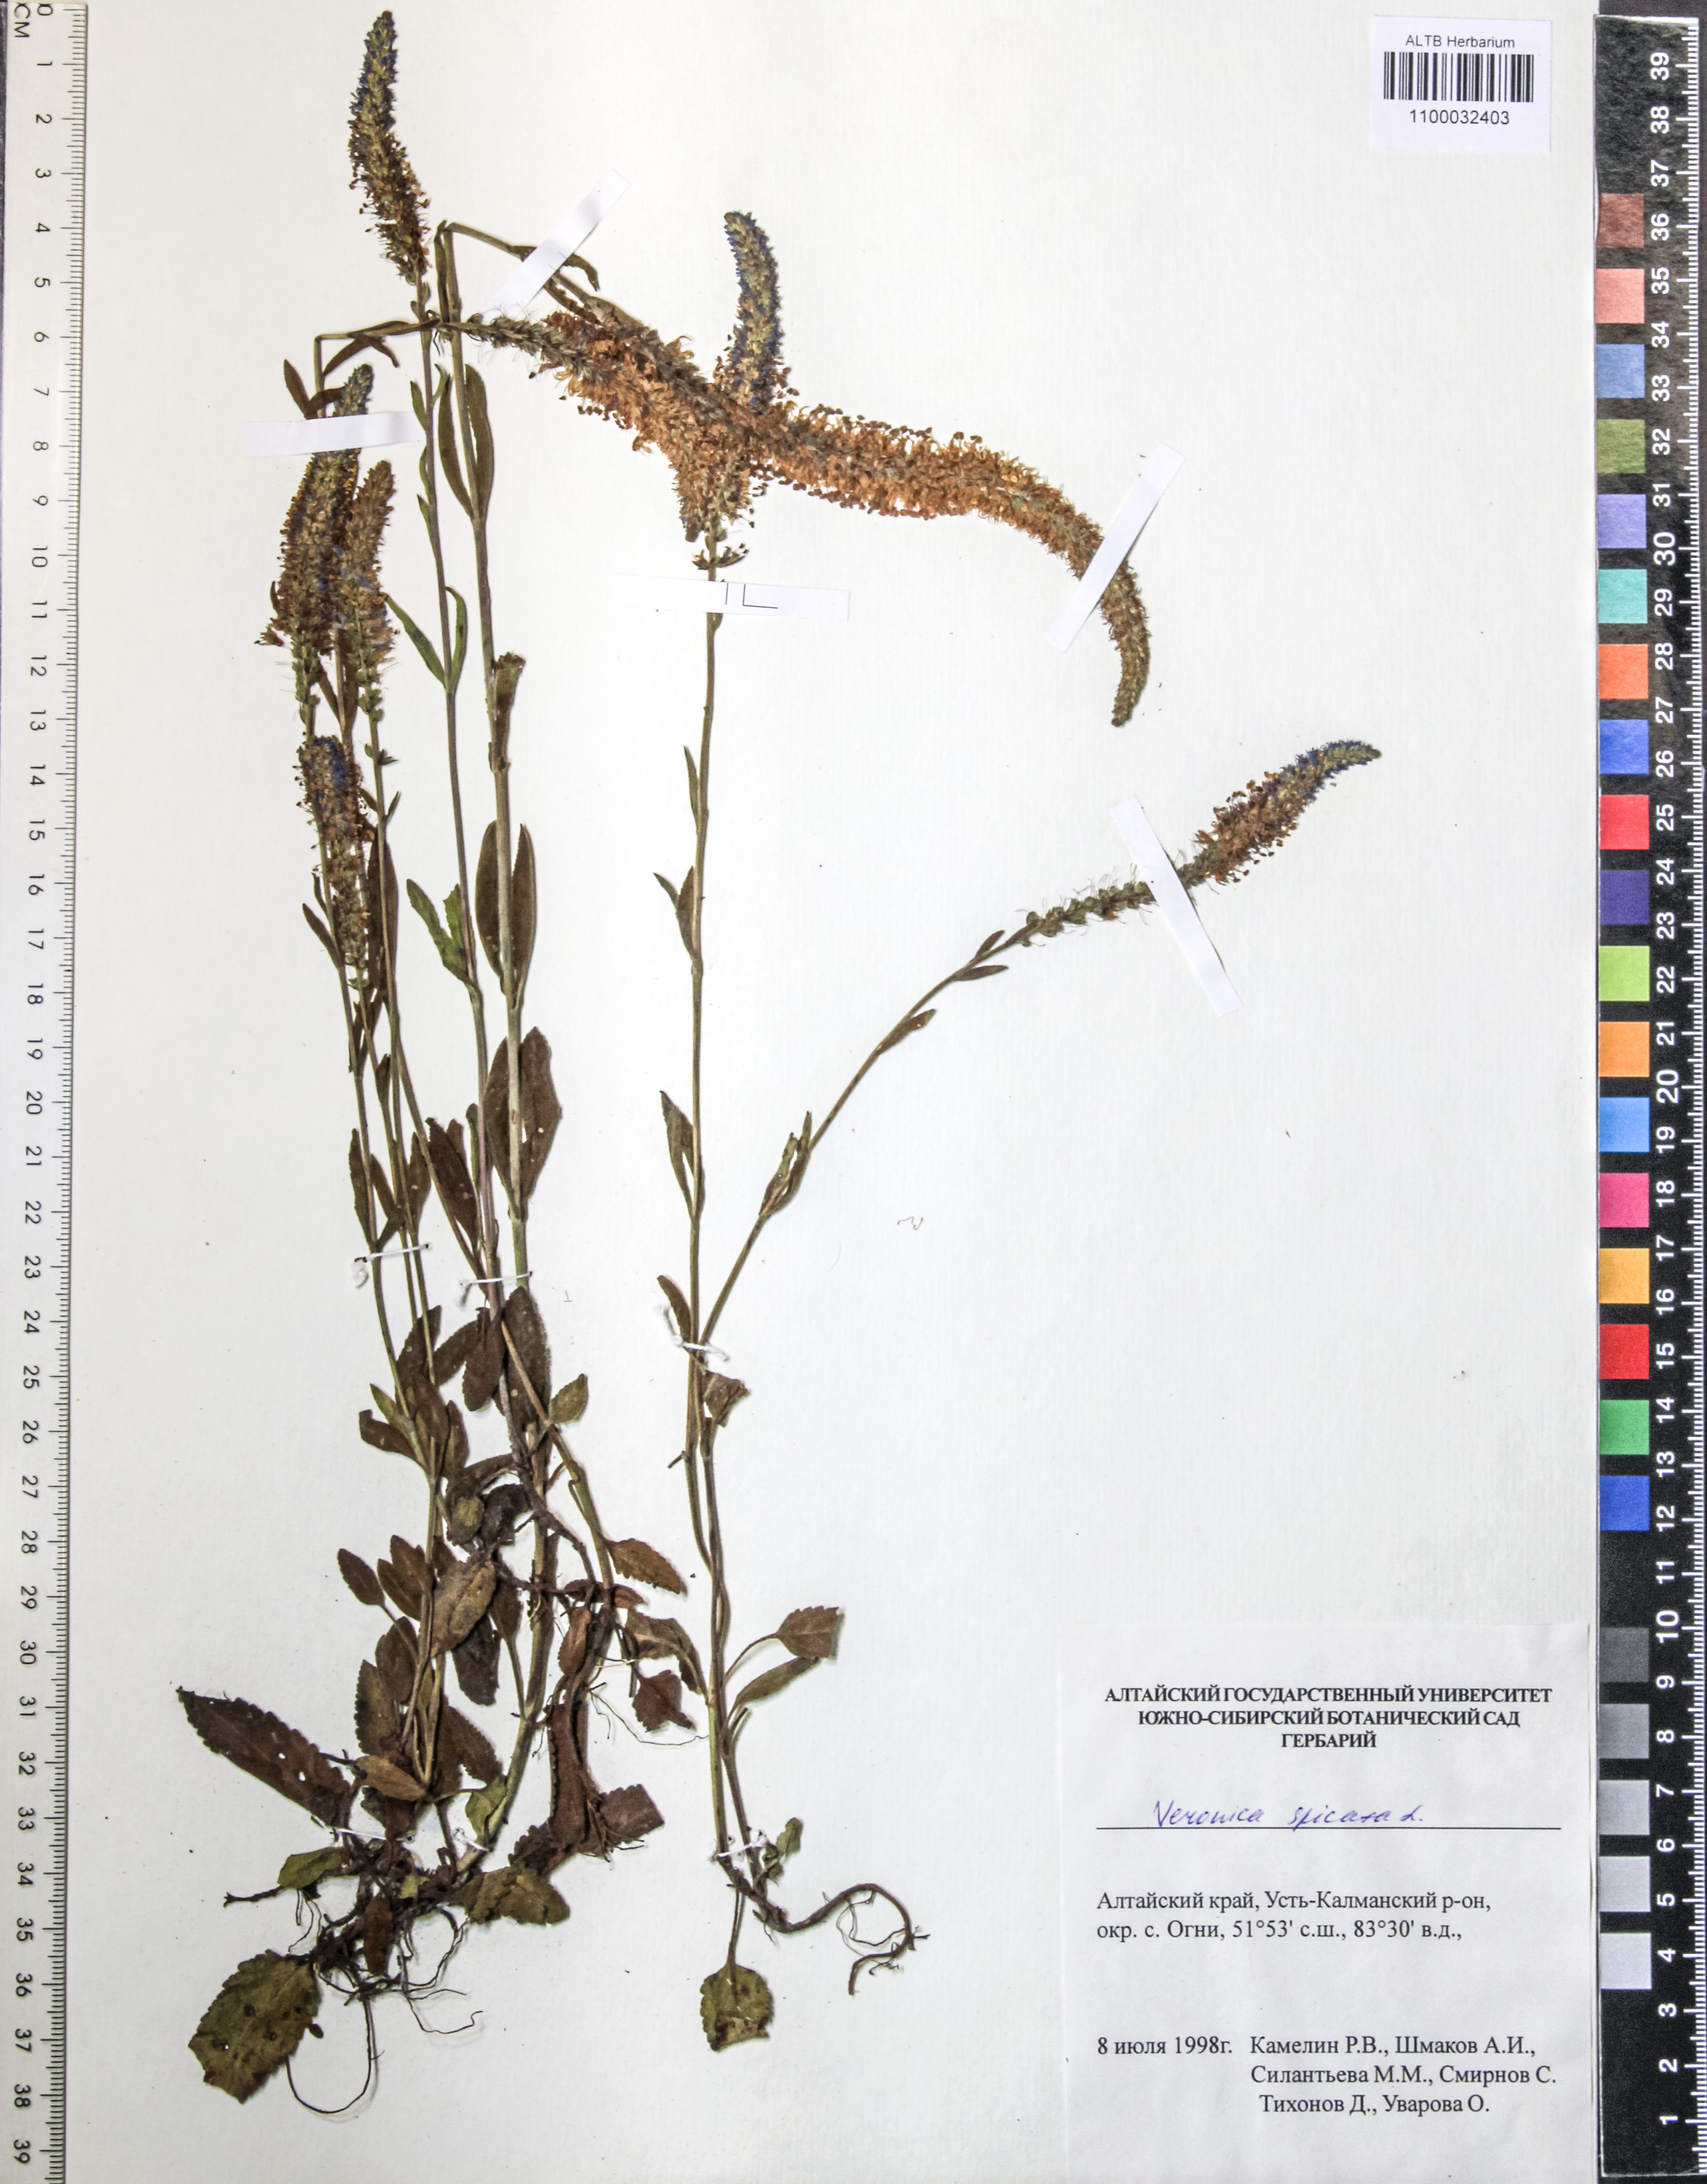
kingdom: Plantae
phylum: Tracheophyta
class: Magnoliopsida
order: Lamiales
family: Plantaginaceae
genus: Veronica
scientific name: Veronica spicata
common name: Spiked speedwell
